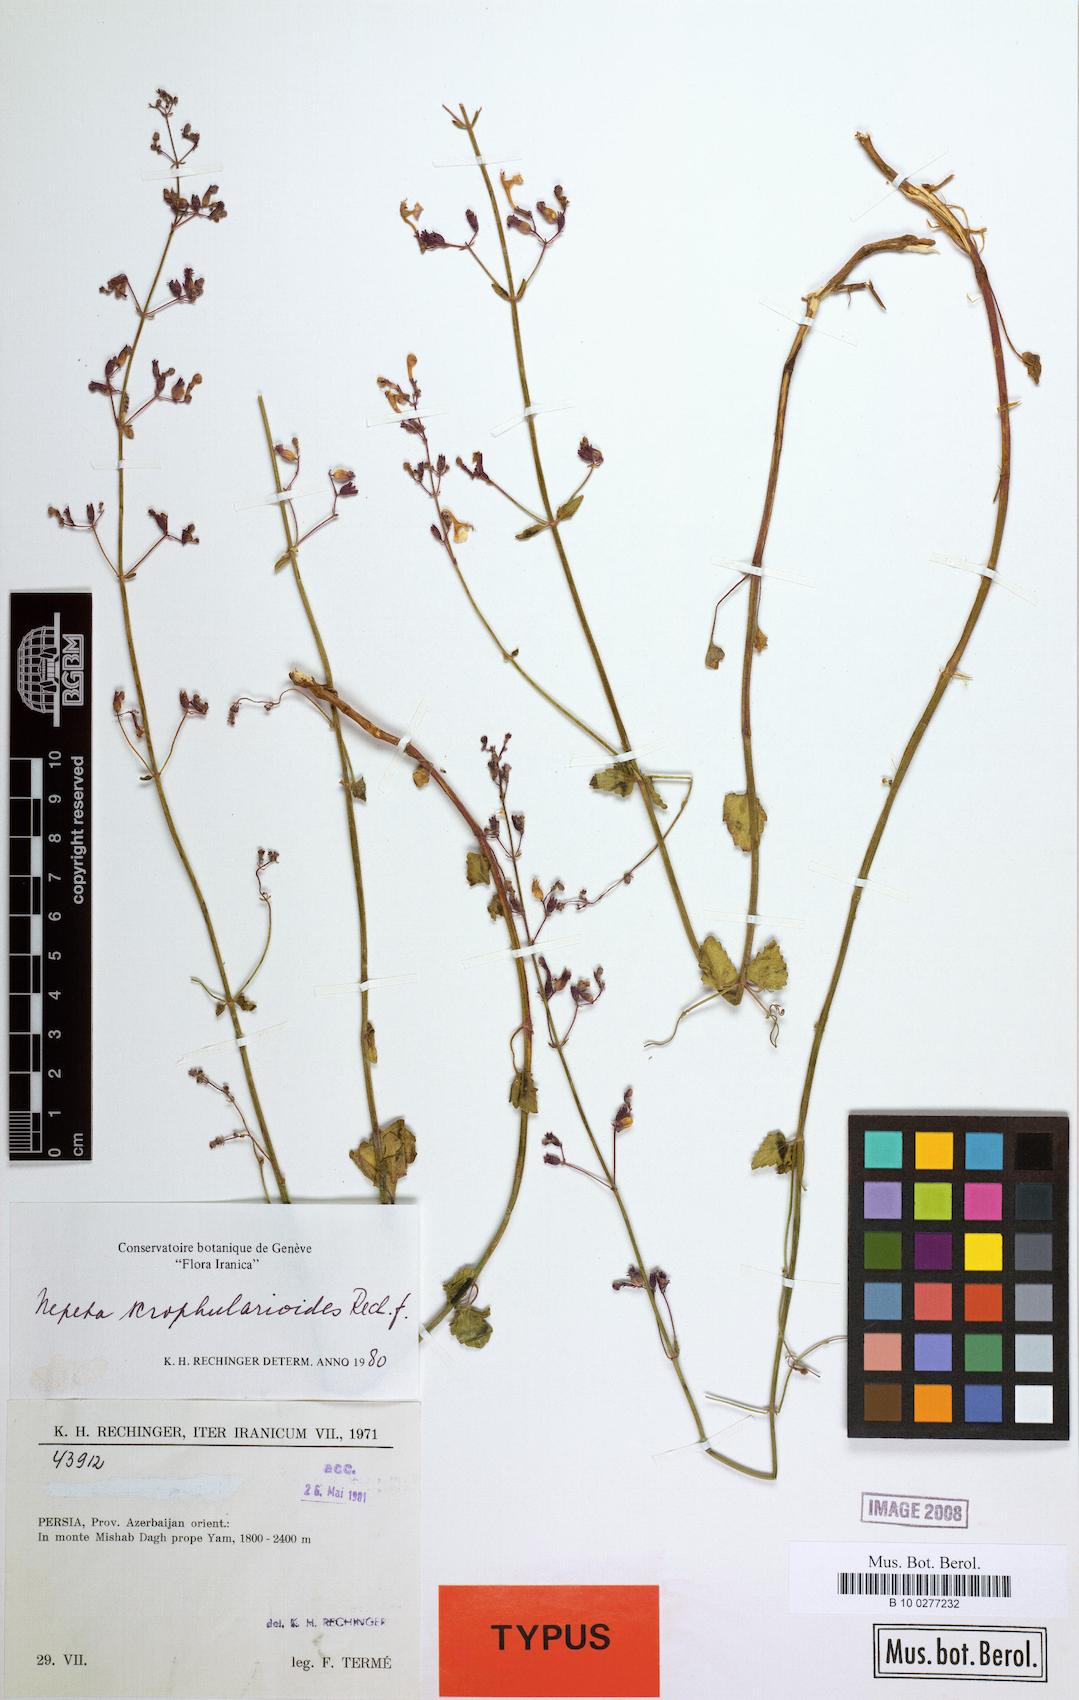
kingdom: Plantae
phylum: Tracheophyta
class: Magnoliopsida
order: Lamiales
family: Lamiaceae
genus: Nepeta
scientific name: Nepeta teucriifolia
